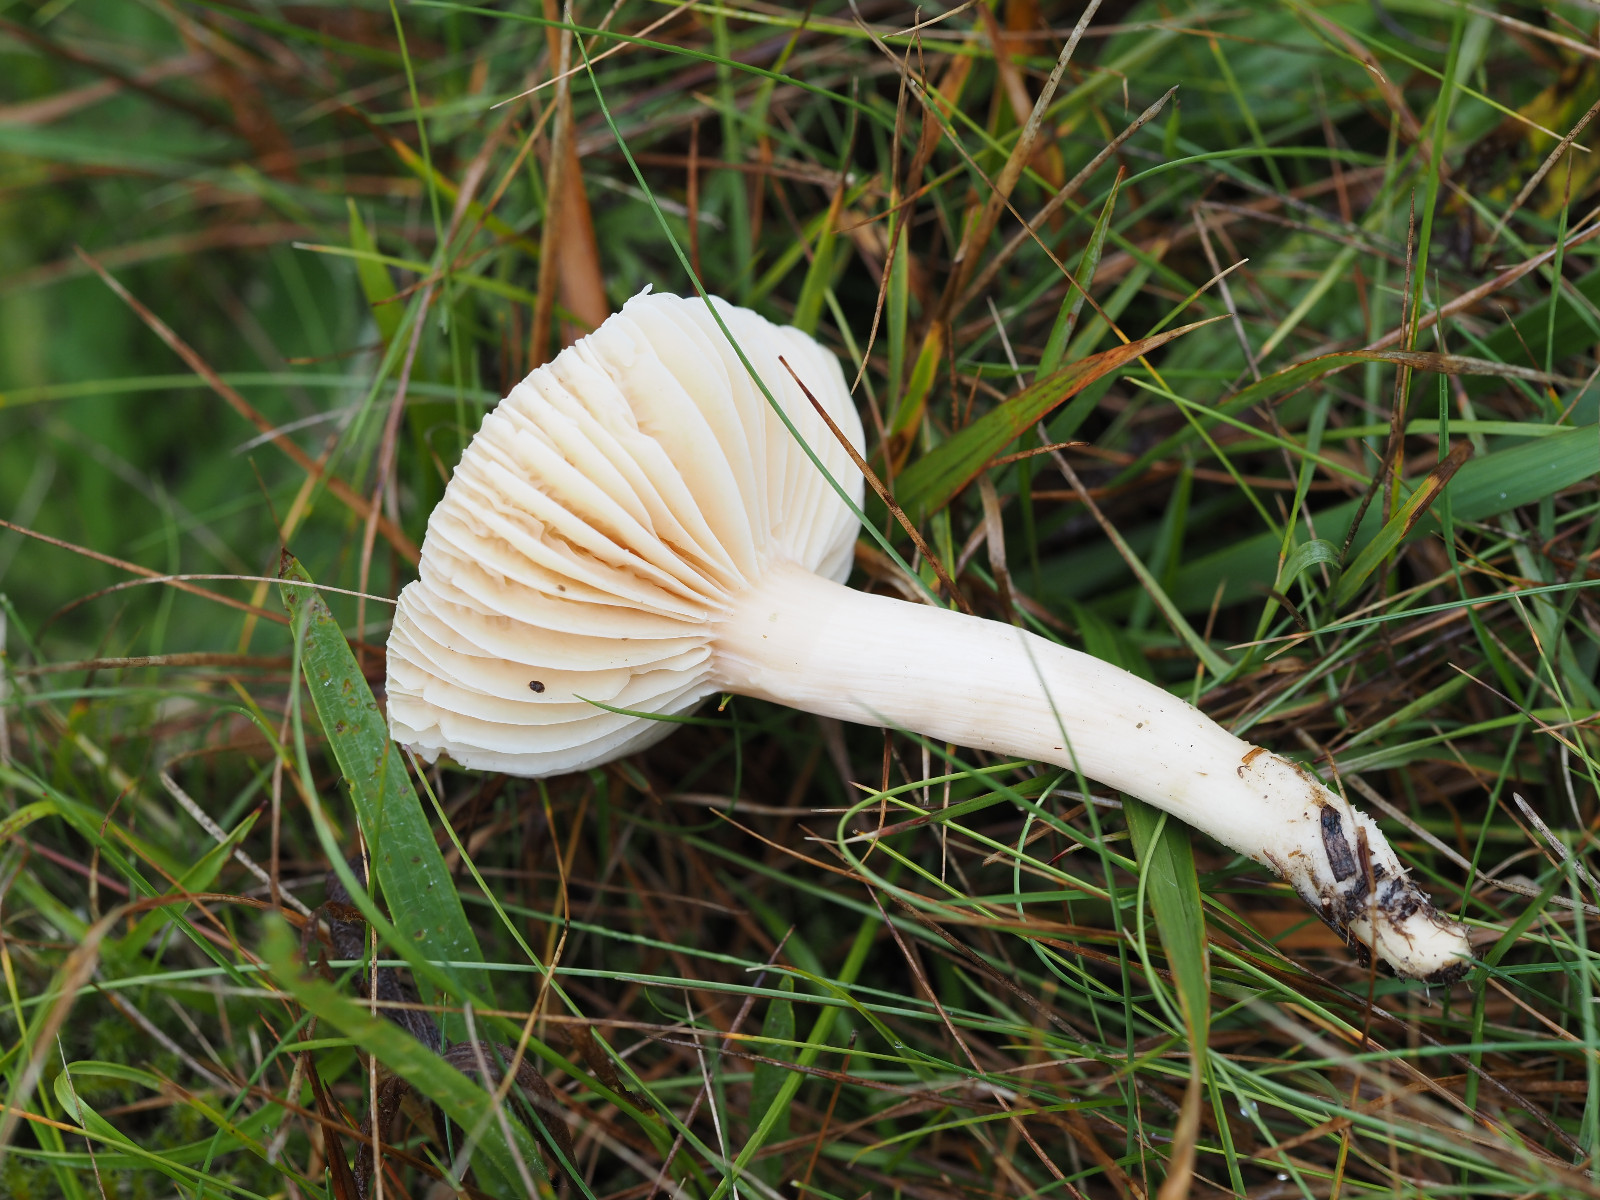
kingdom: Fungi
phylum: Basidiomycota
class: Agaricomycetes
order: Agaricales
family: Hygrophoraceae
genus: Cuphophyllus
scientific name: Cuphophyllus pratensis
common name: eng-vokshat
